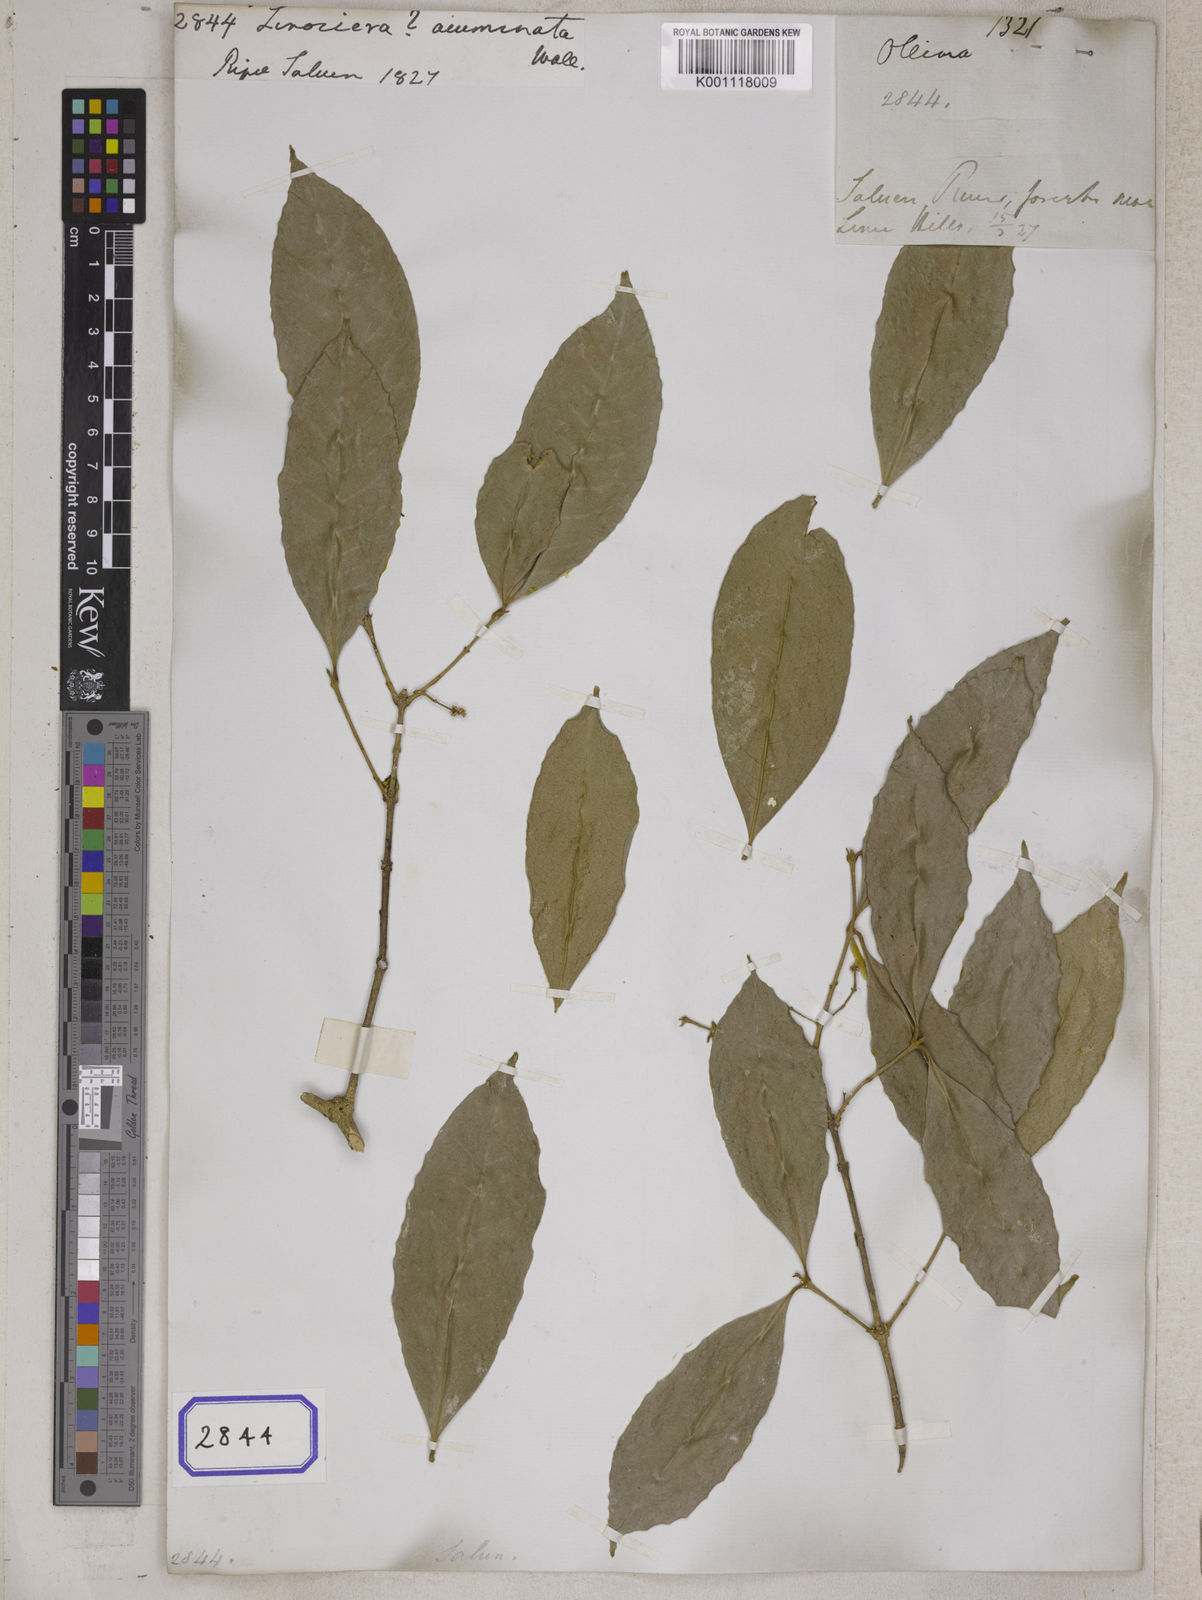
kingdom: Plantae
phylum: Tracheophyta
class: Magnoliopsida
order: Lamiales
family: Oleaceae
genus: Chionanthus
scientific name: Chionanthus
